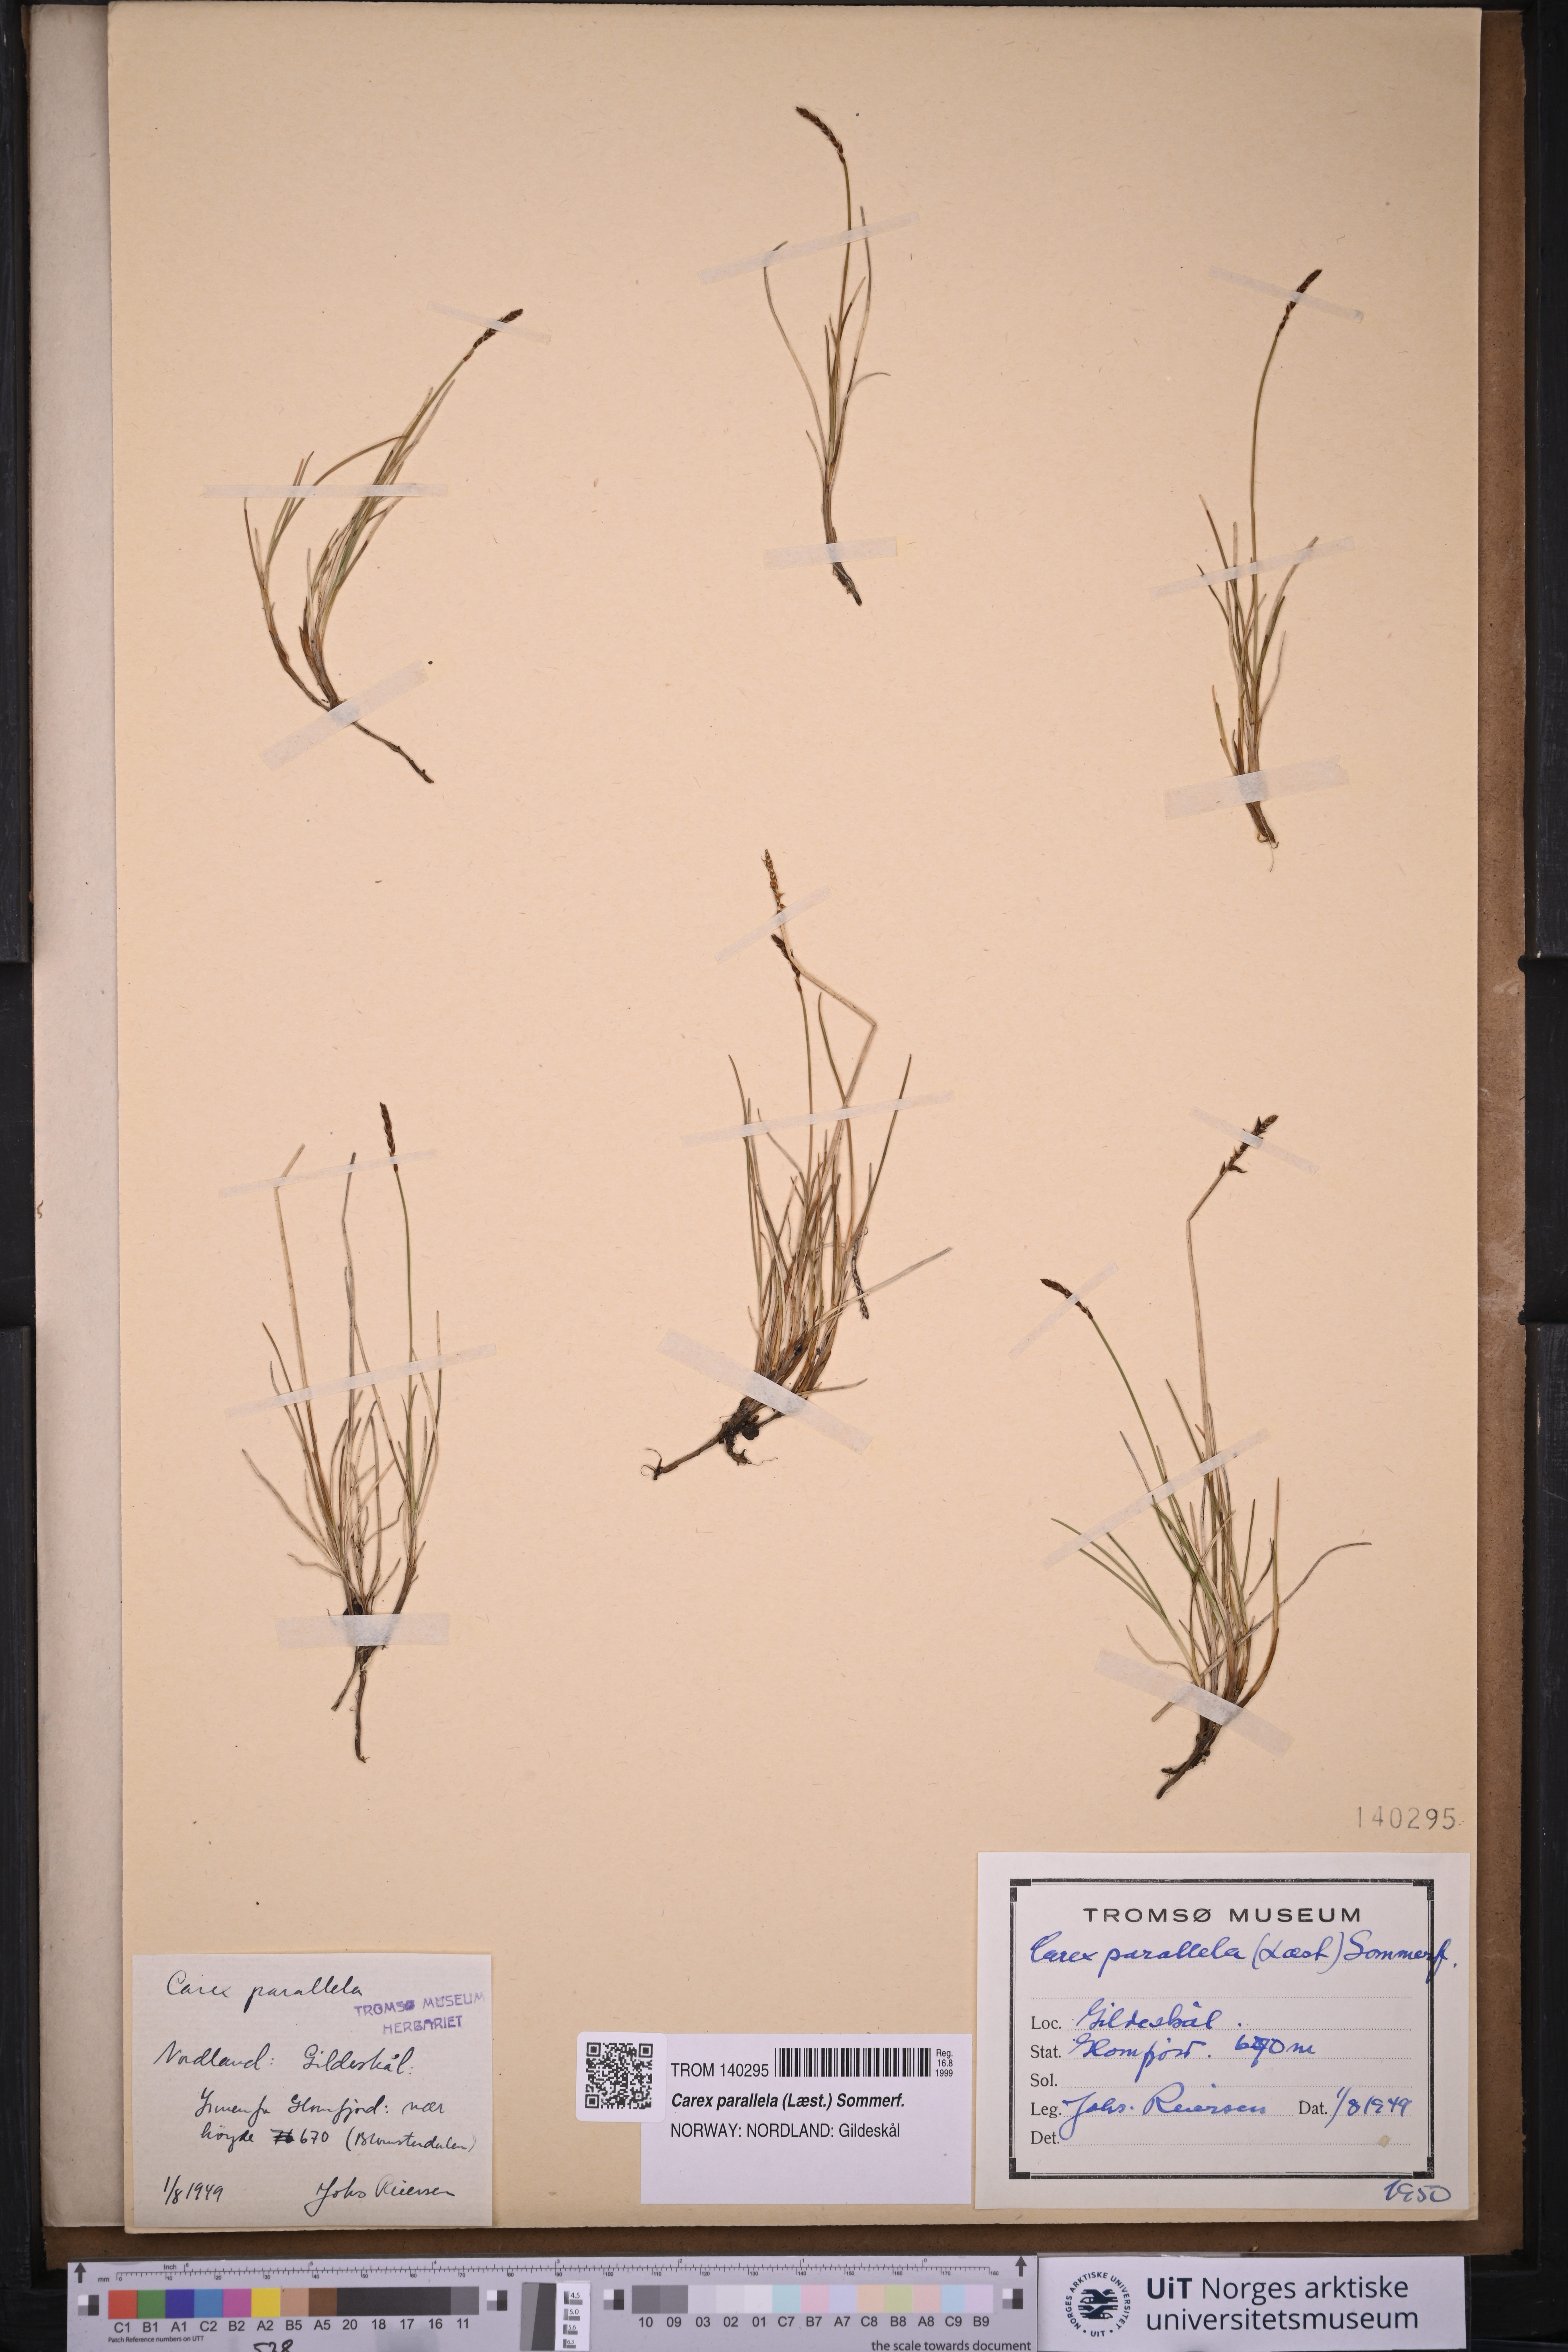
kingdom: Plantae
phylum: Tracheophyta
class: Liliopsida
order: Poales
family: Cyperaceae
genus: Carex
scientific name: Carex parallela
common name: Parallel sedge
